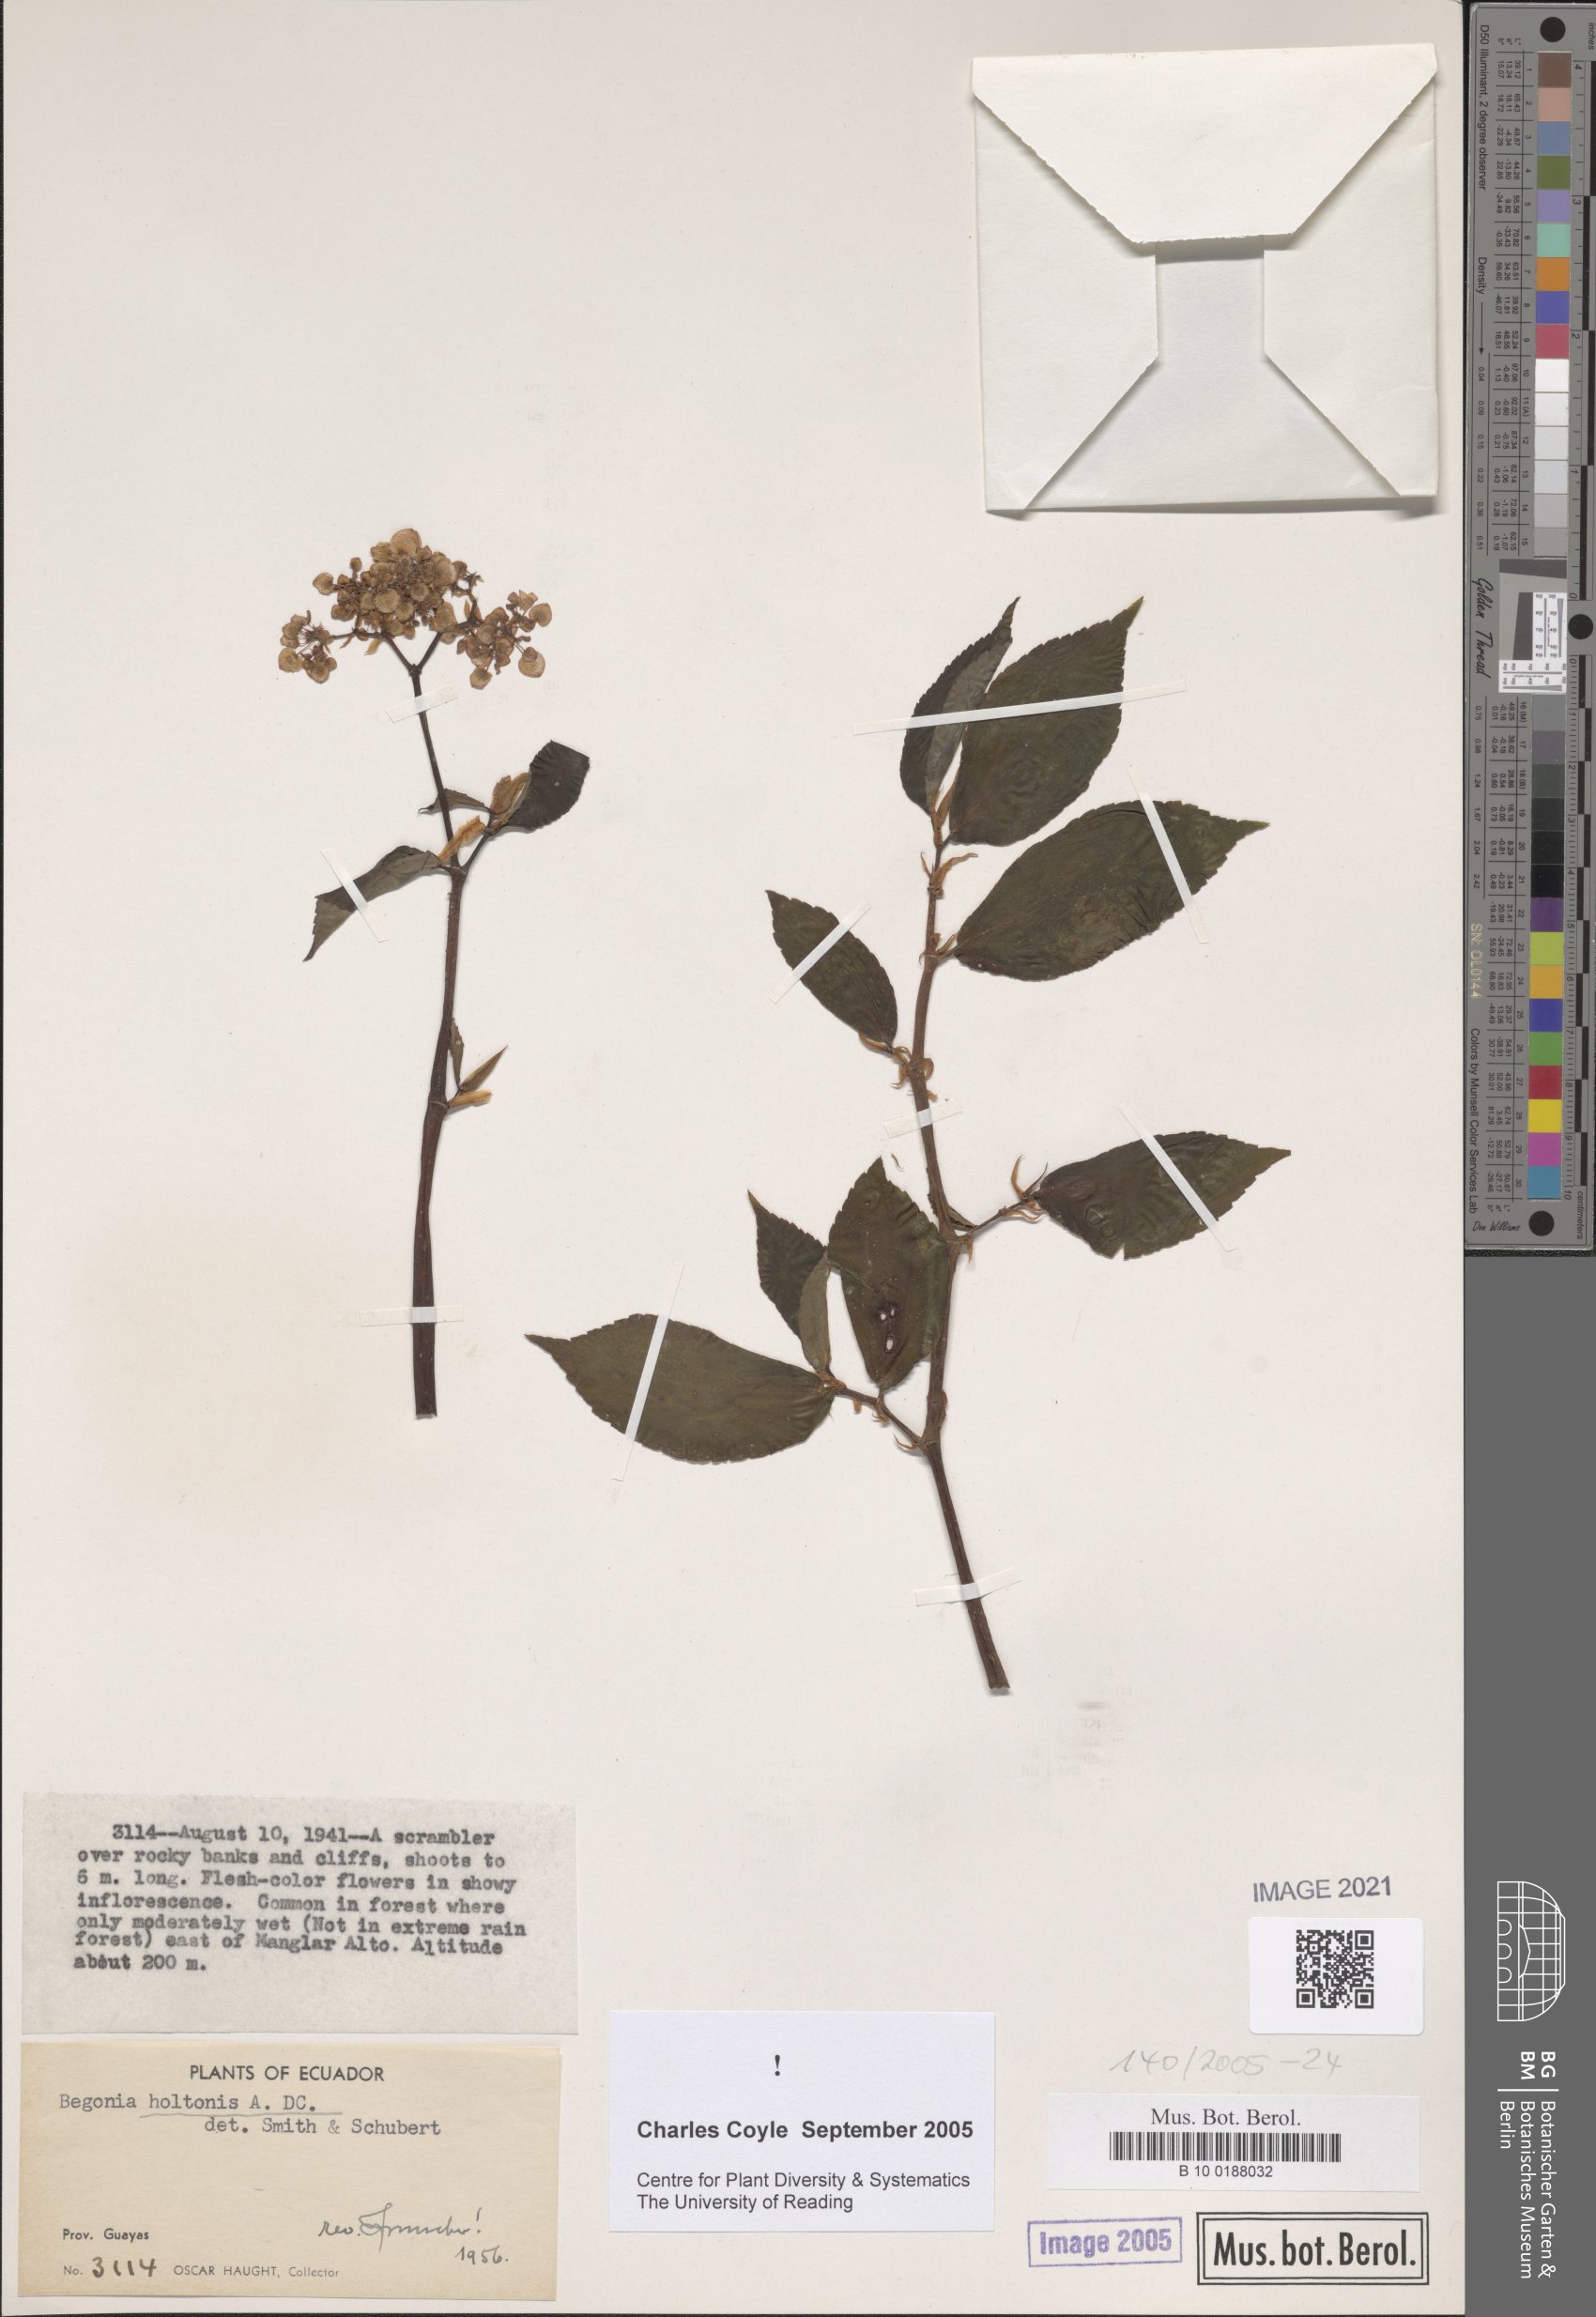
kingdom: Plantae
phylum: Tracheophyta
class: Magnoliopsida
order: Cucurbitales
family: Begoniaceae
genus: Begonia
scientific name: Begonia holtonis
